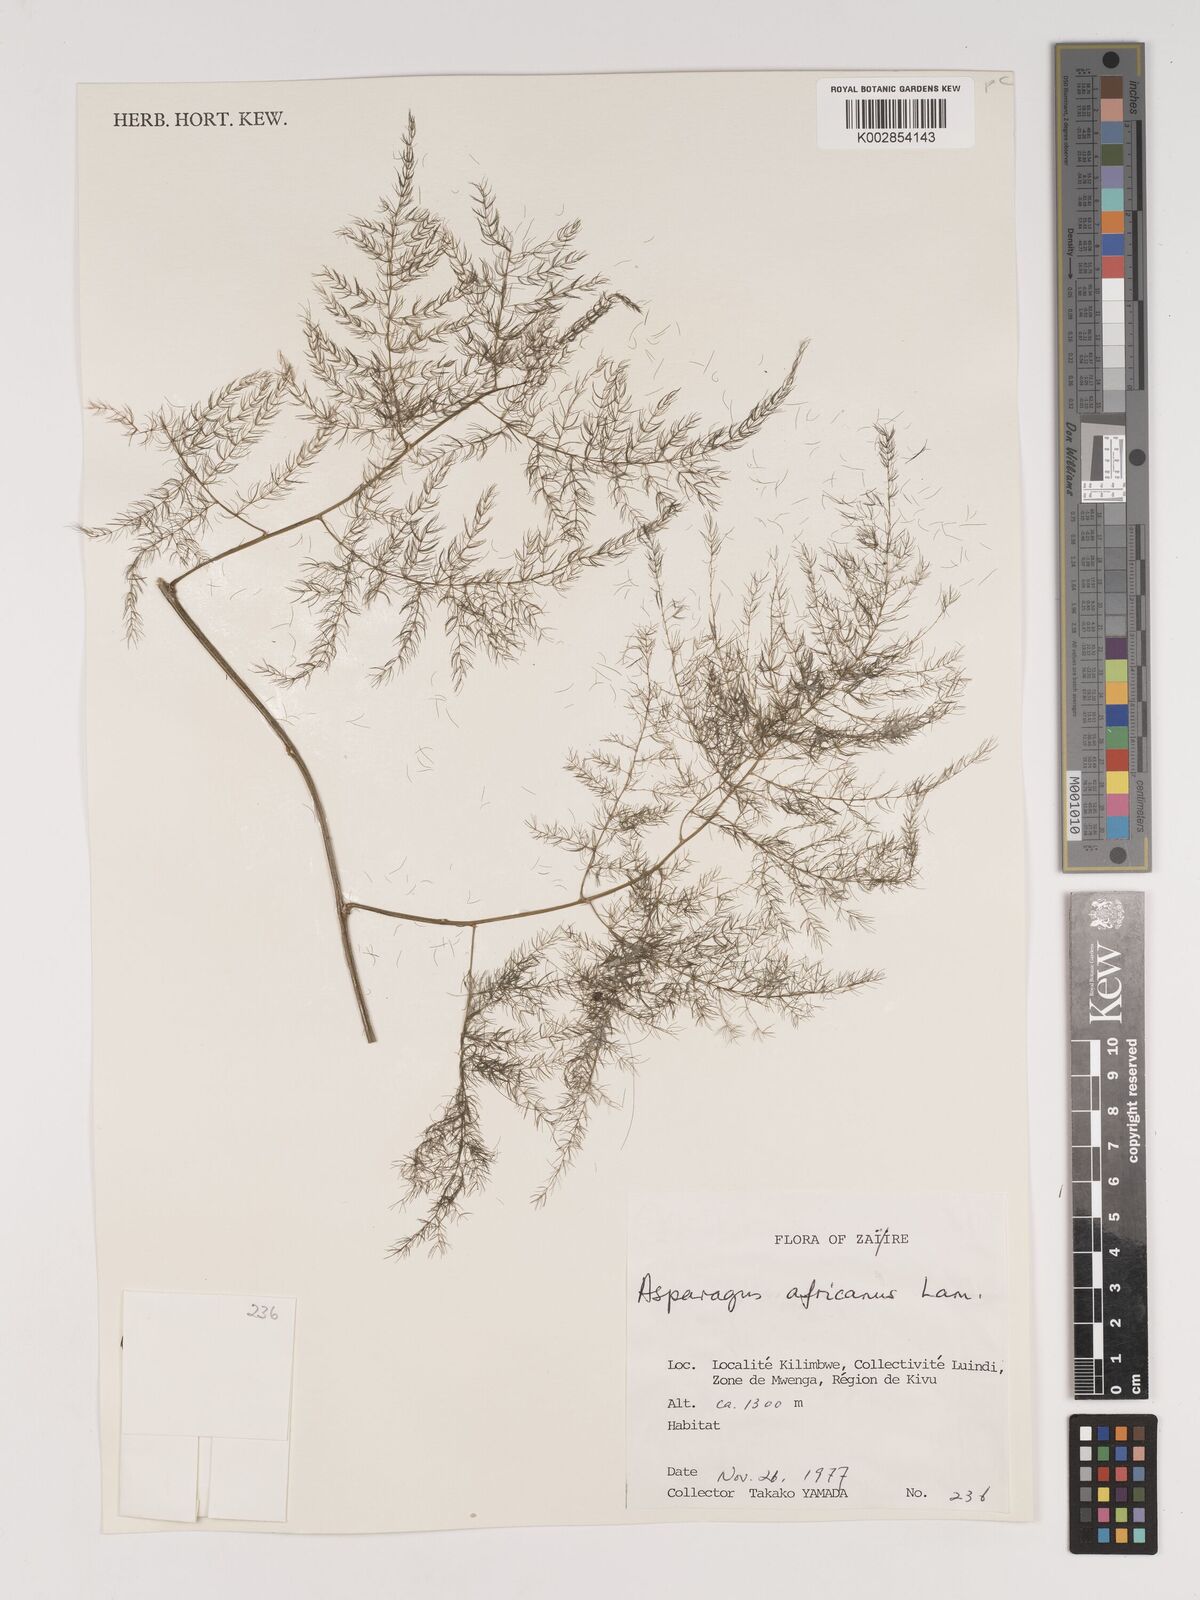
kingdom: Plantae
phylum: Tracheophyta
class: Liliopsida
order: Asparagales
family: Asparagaceae
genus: Asparagus
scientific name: Asparagus africanus
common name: Asparagus-fern
